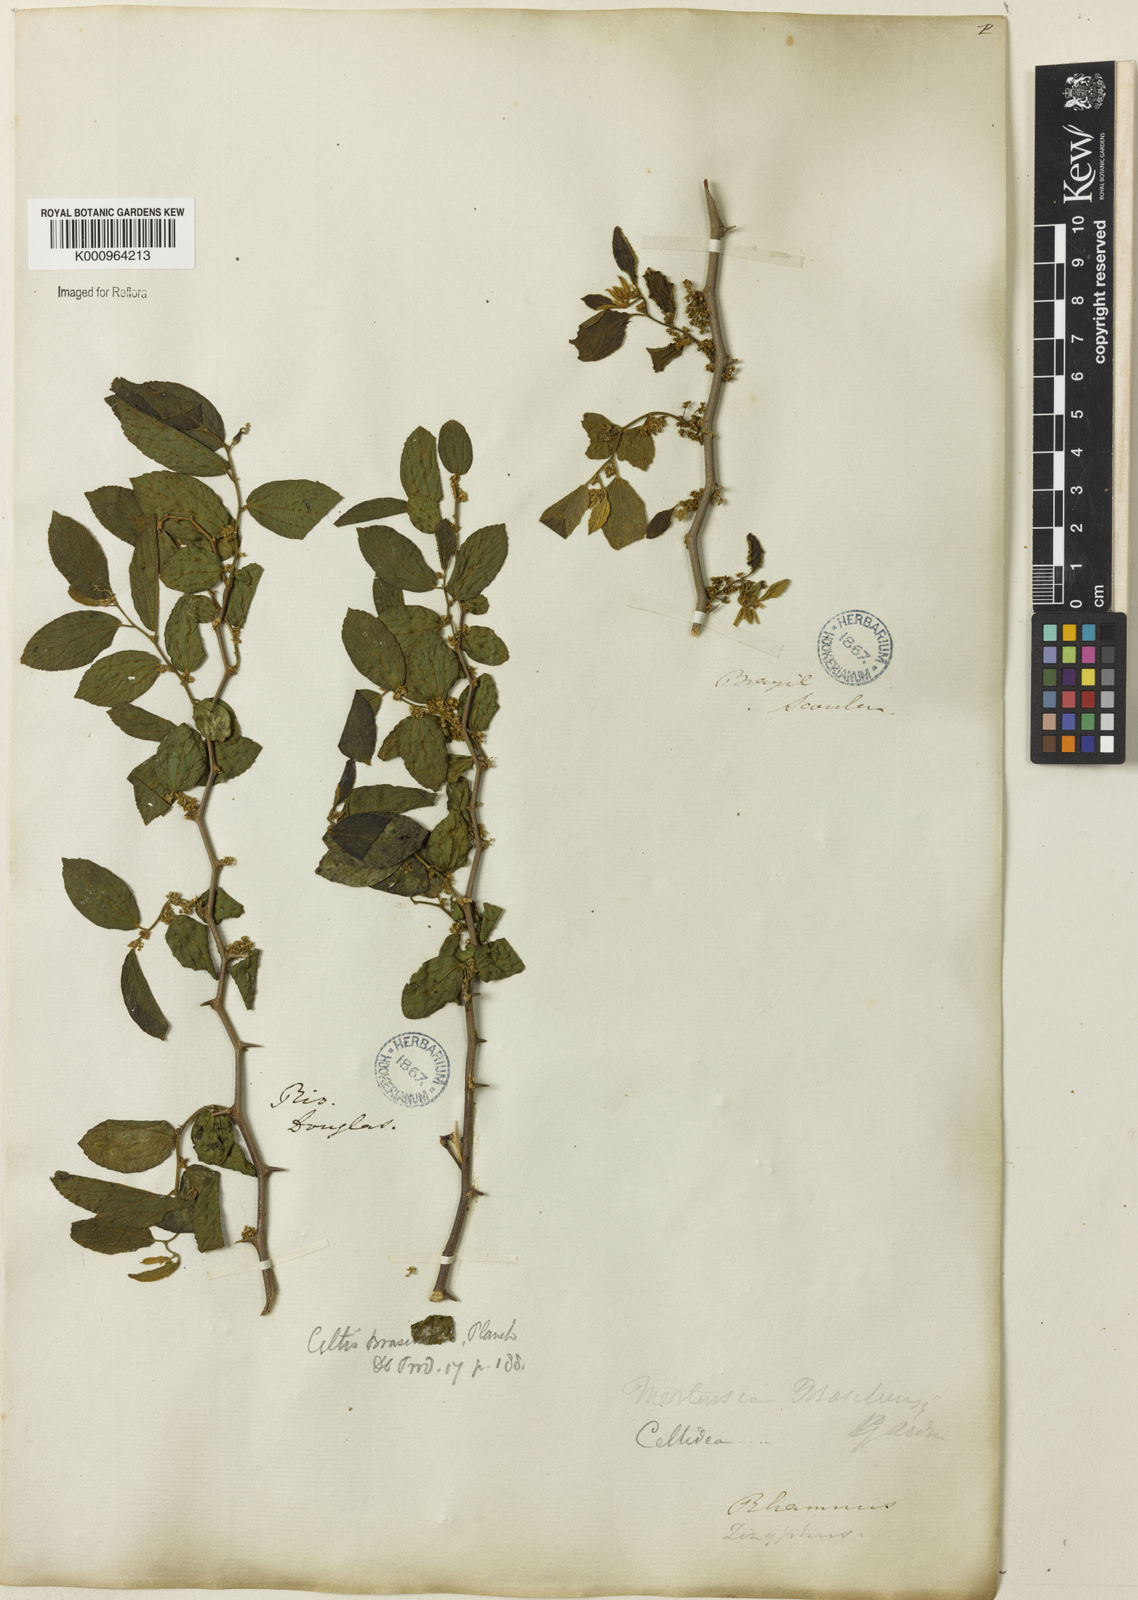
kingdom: Plantae
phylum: Tracheophyta
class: Magnoliopsida
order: Rosales
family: Cannabaceae
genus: Celtis
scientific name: Celtis brasiliensis
